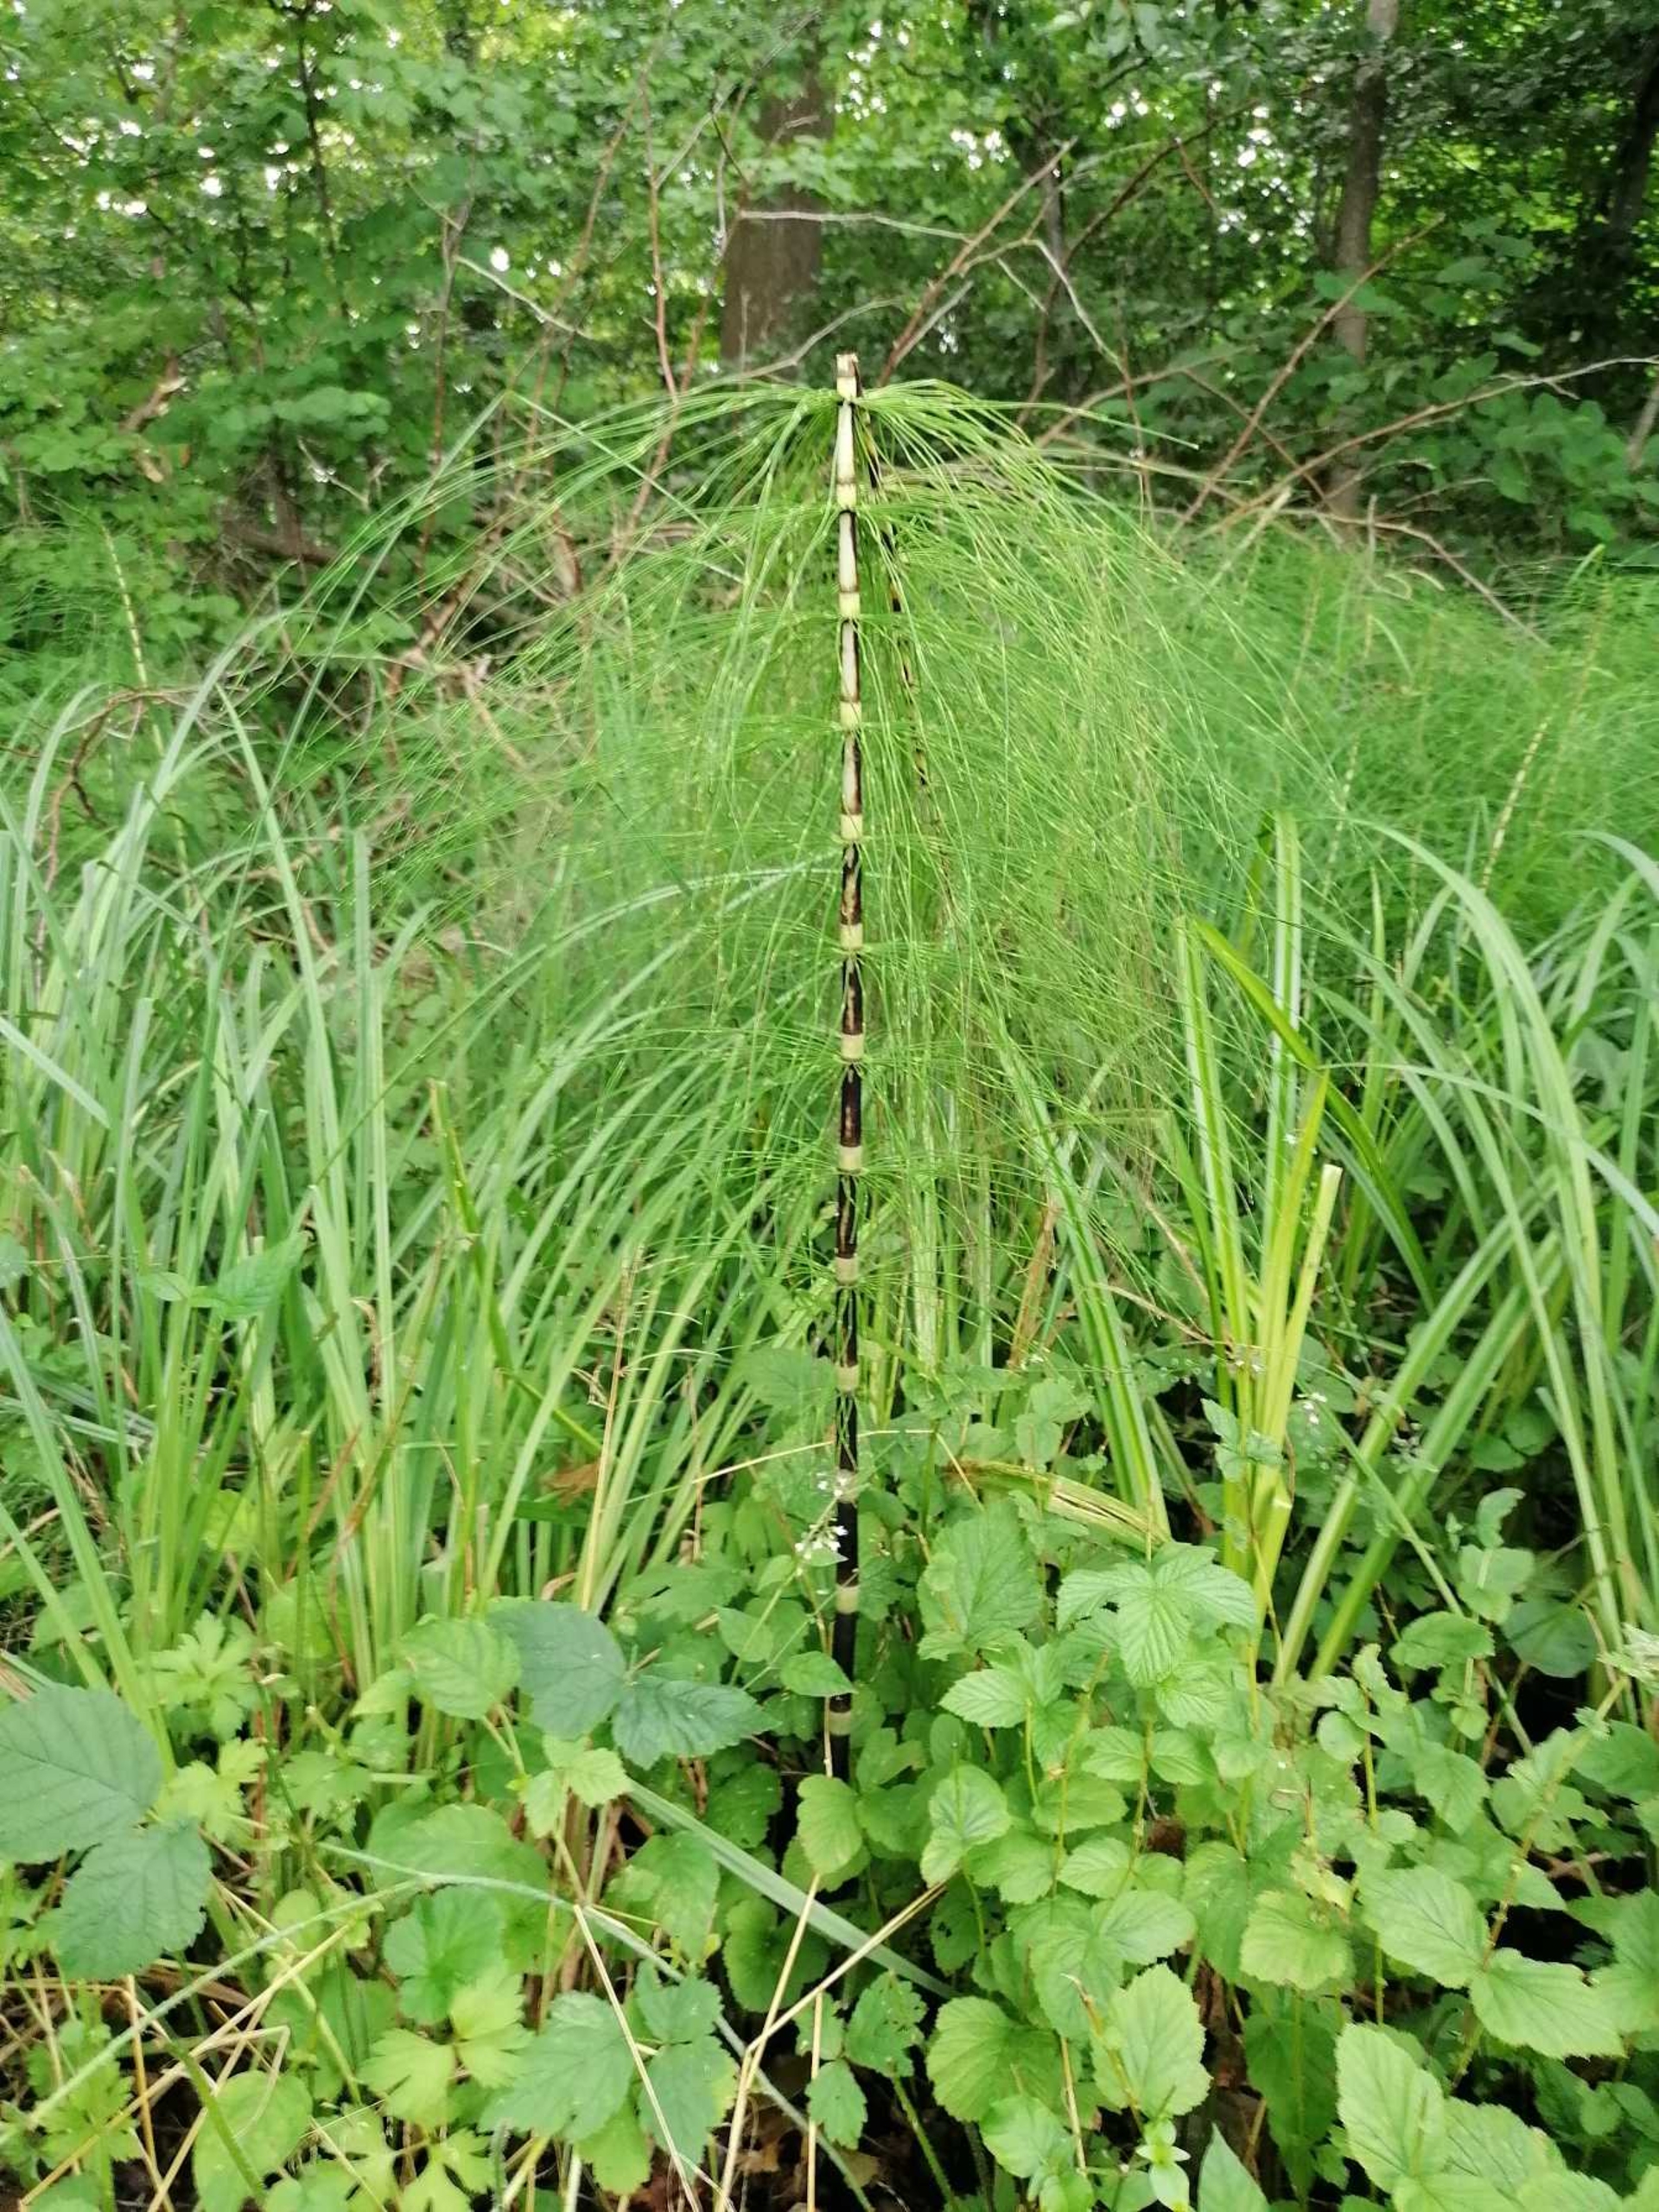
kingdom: Plantae
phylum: Tracheophyta
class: Polypodiopsida
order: Equisetales
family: Equisetaceae
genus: Equisetum
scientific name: Equisetum telmateia
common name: Elfenbens-padderok
